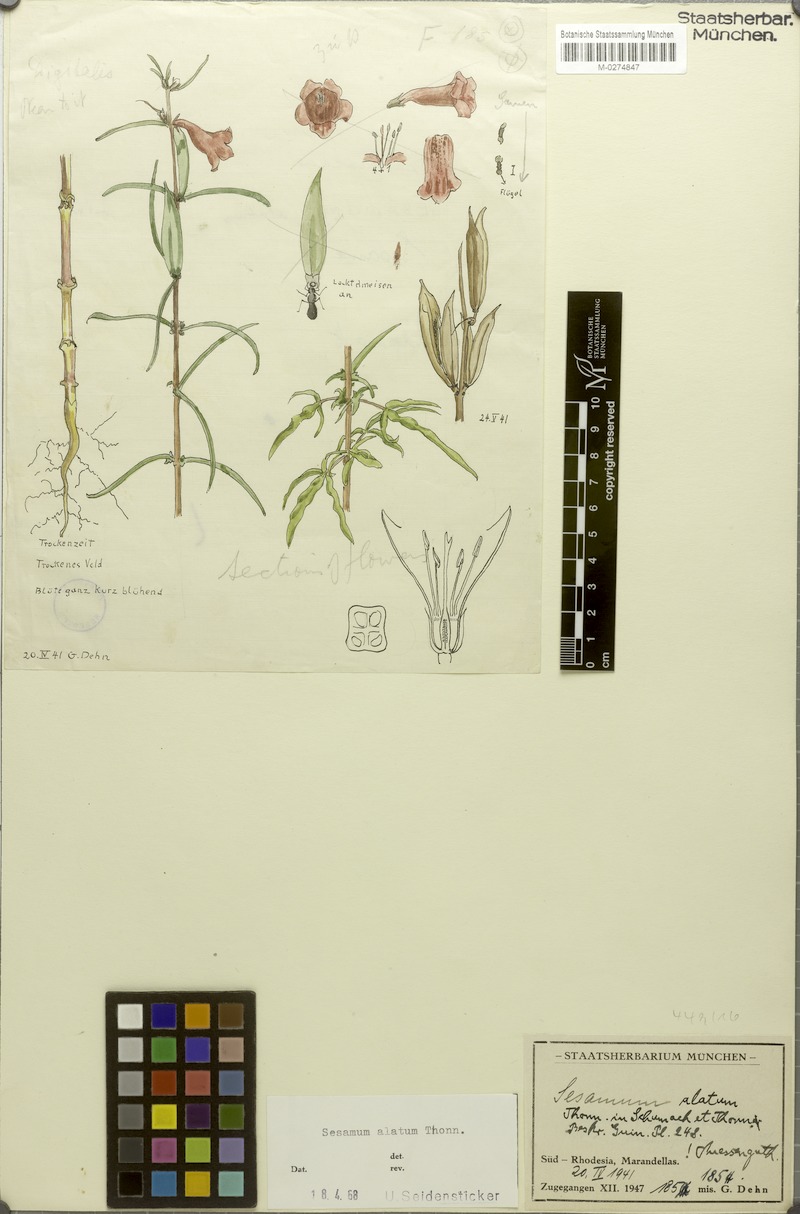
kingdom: Plantae
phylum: Tracheophyta
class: Magnoliopsida
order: Lamiales
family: Pedaliaceae
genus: Sesamum
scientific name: Sesamum alatum
